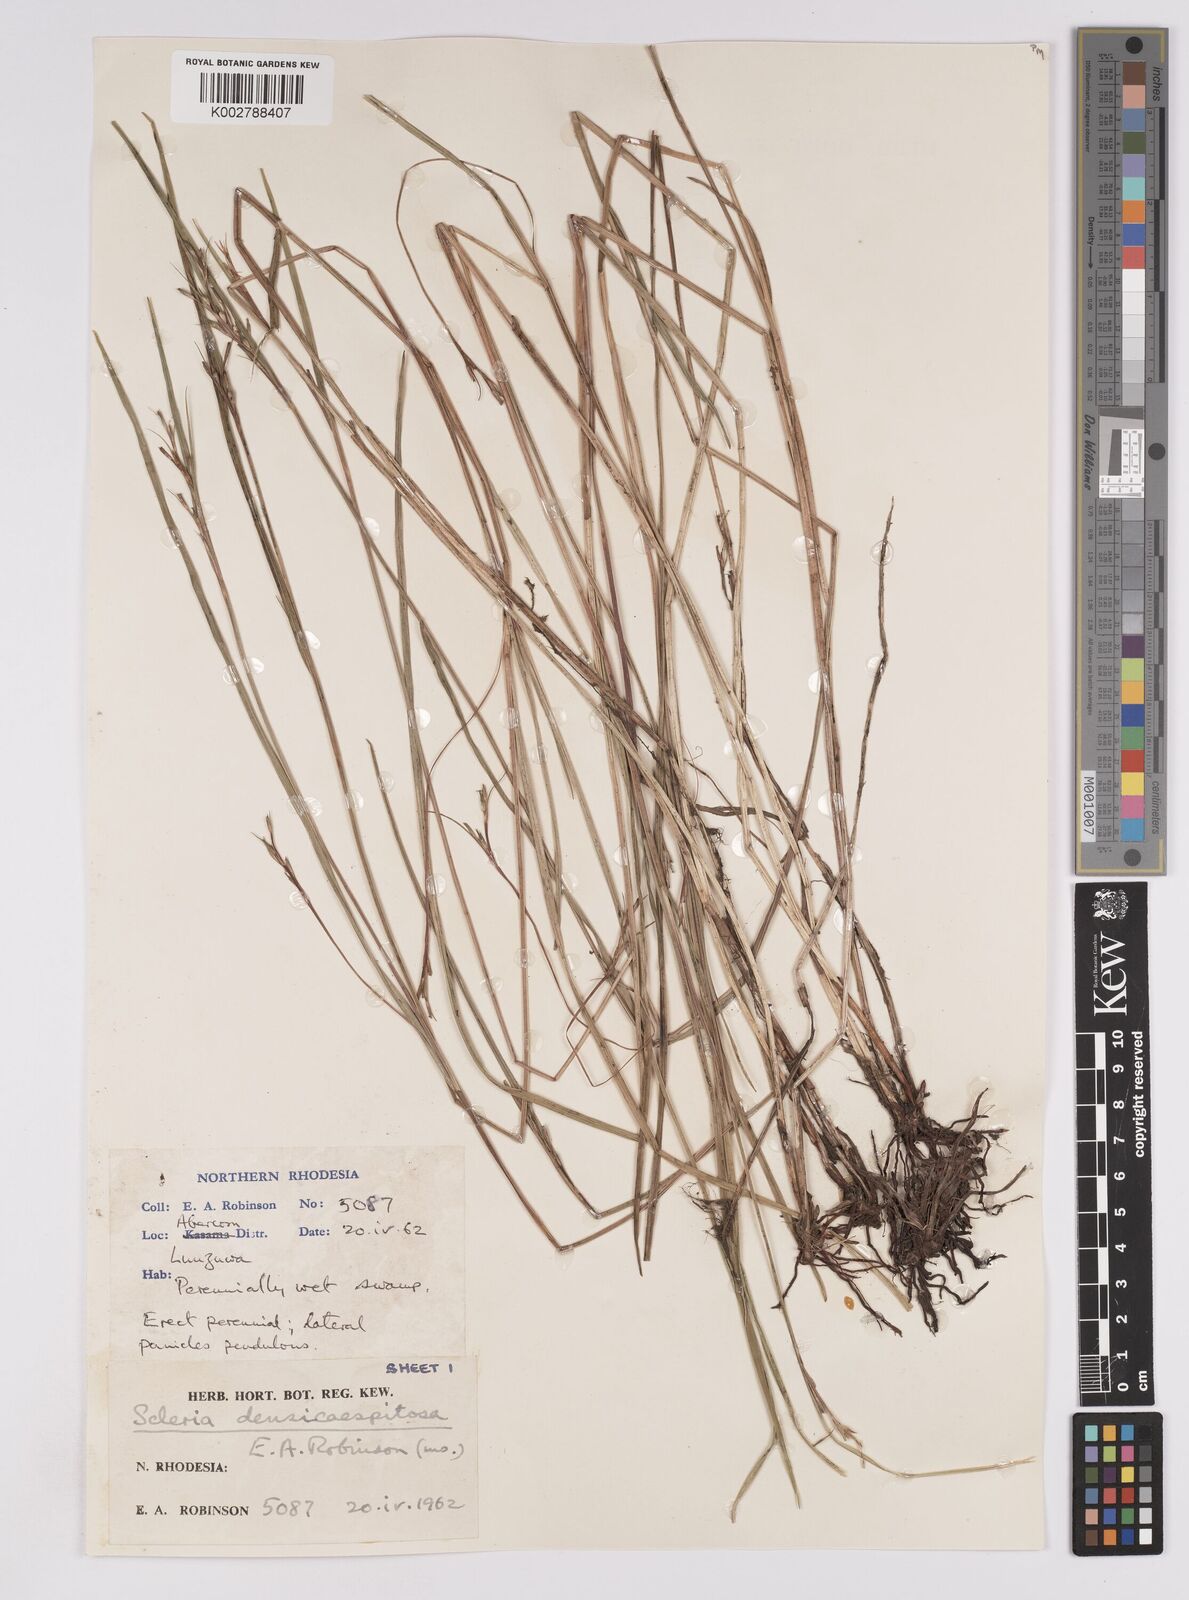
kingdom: Plantae
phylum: Tracheophyta
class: Liliopsida
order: Poales
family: Cyperaceae
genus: Scleria
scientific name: Scleria unguiculata
